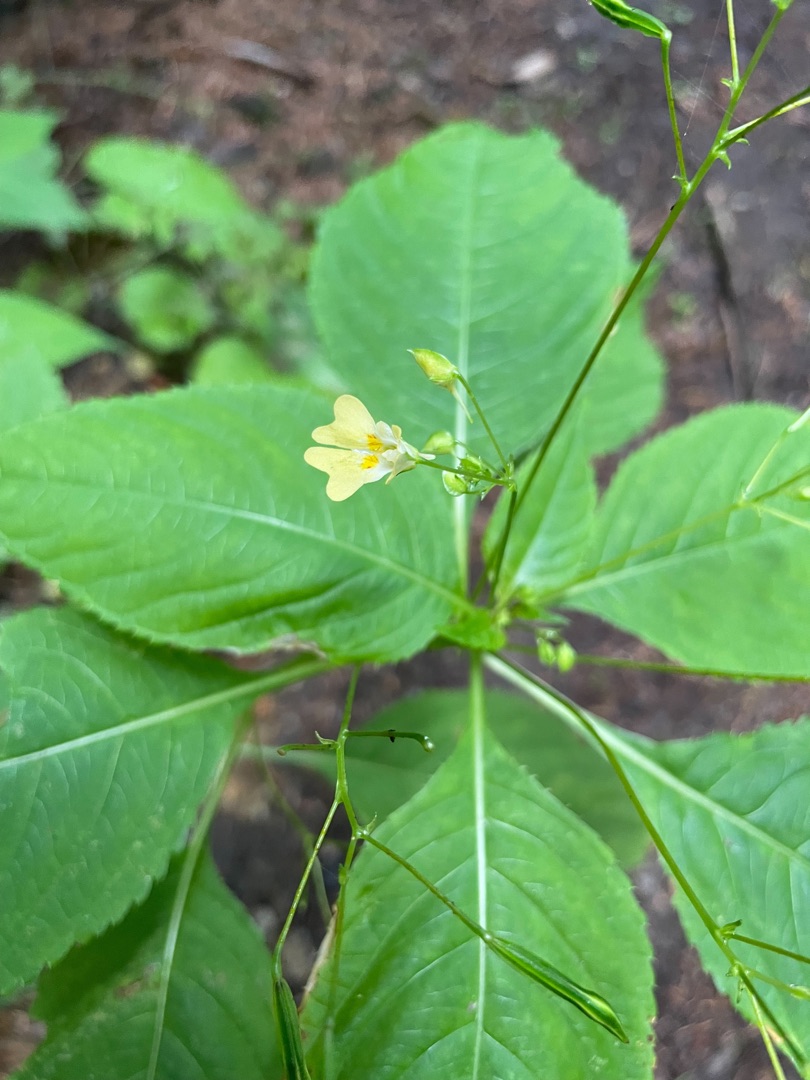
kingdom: Plantae
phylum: Tracheophyta
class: Magnoliopsida
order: Ericales
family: Balsaminaceae
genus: Impatiens
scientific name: Impatiens parviflora
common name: Småblomstret balsamin
